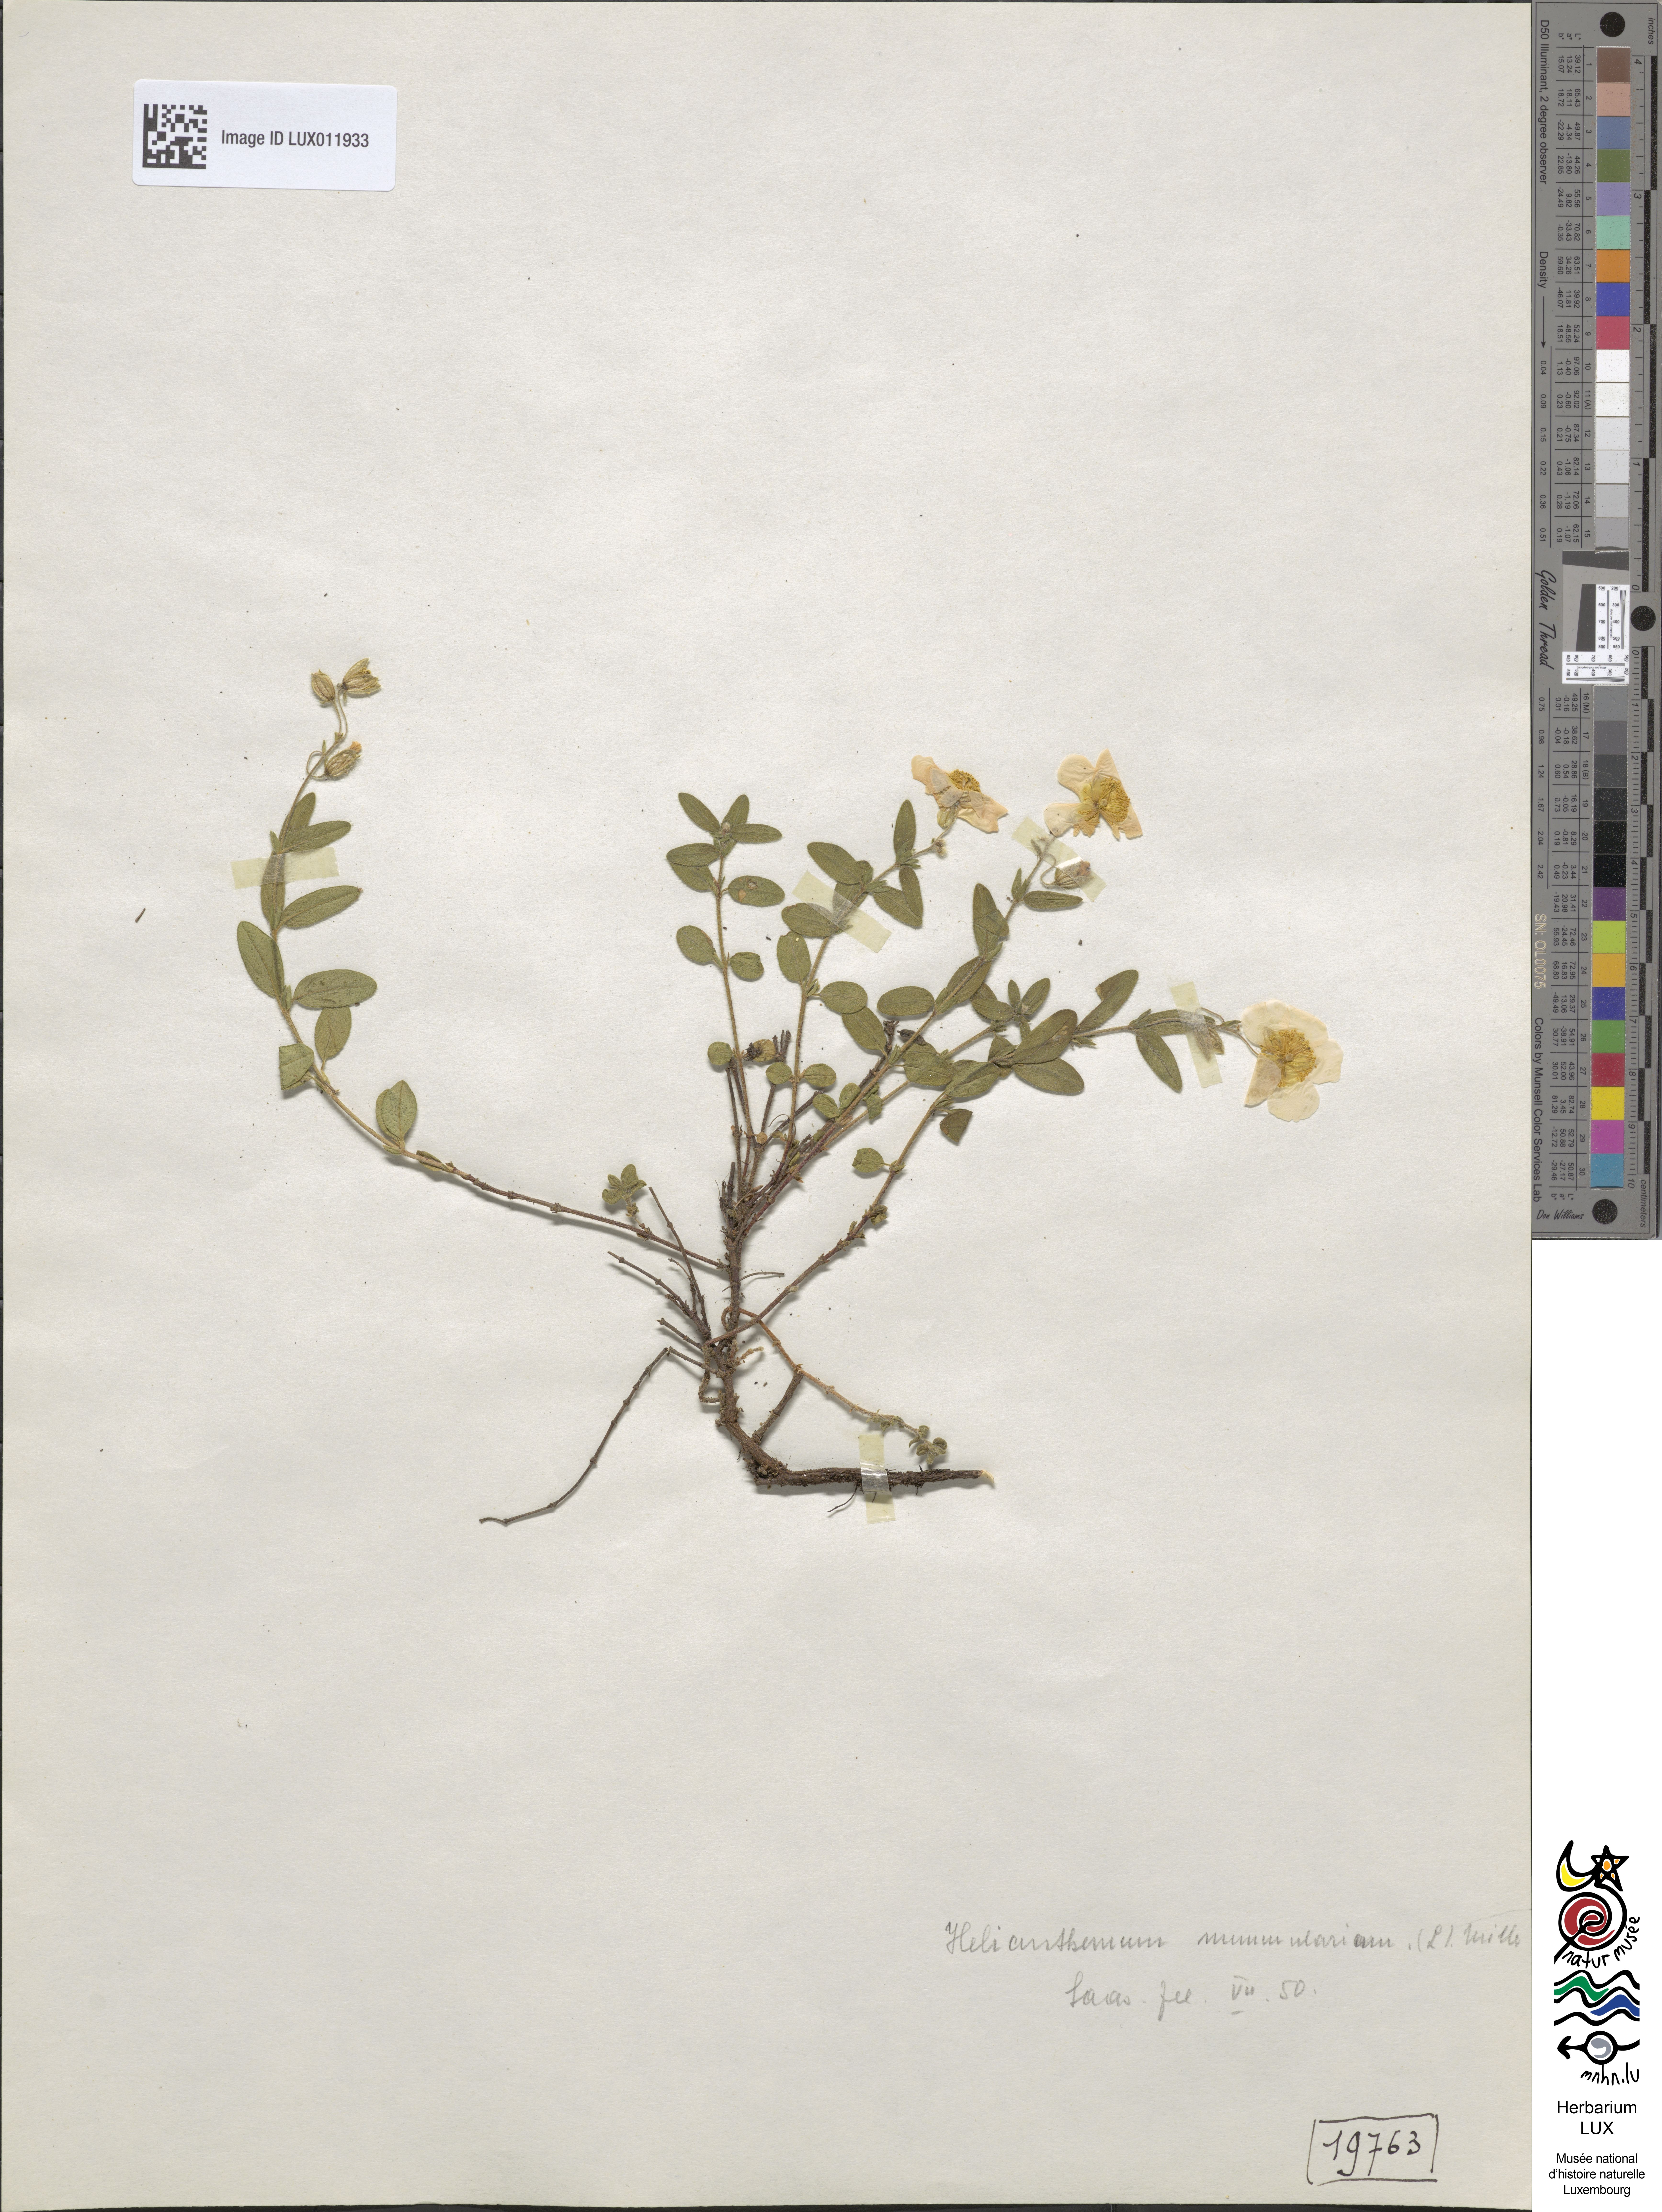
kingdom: Plantae
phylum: Tracheophyta
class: Magnoliopsida
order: Malvales
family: Cistaceae
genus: Helianthemum
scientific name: Helianthemum nummularium
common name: Common rock-rose
